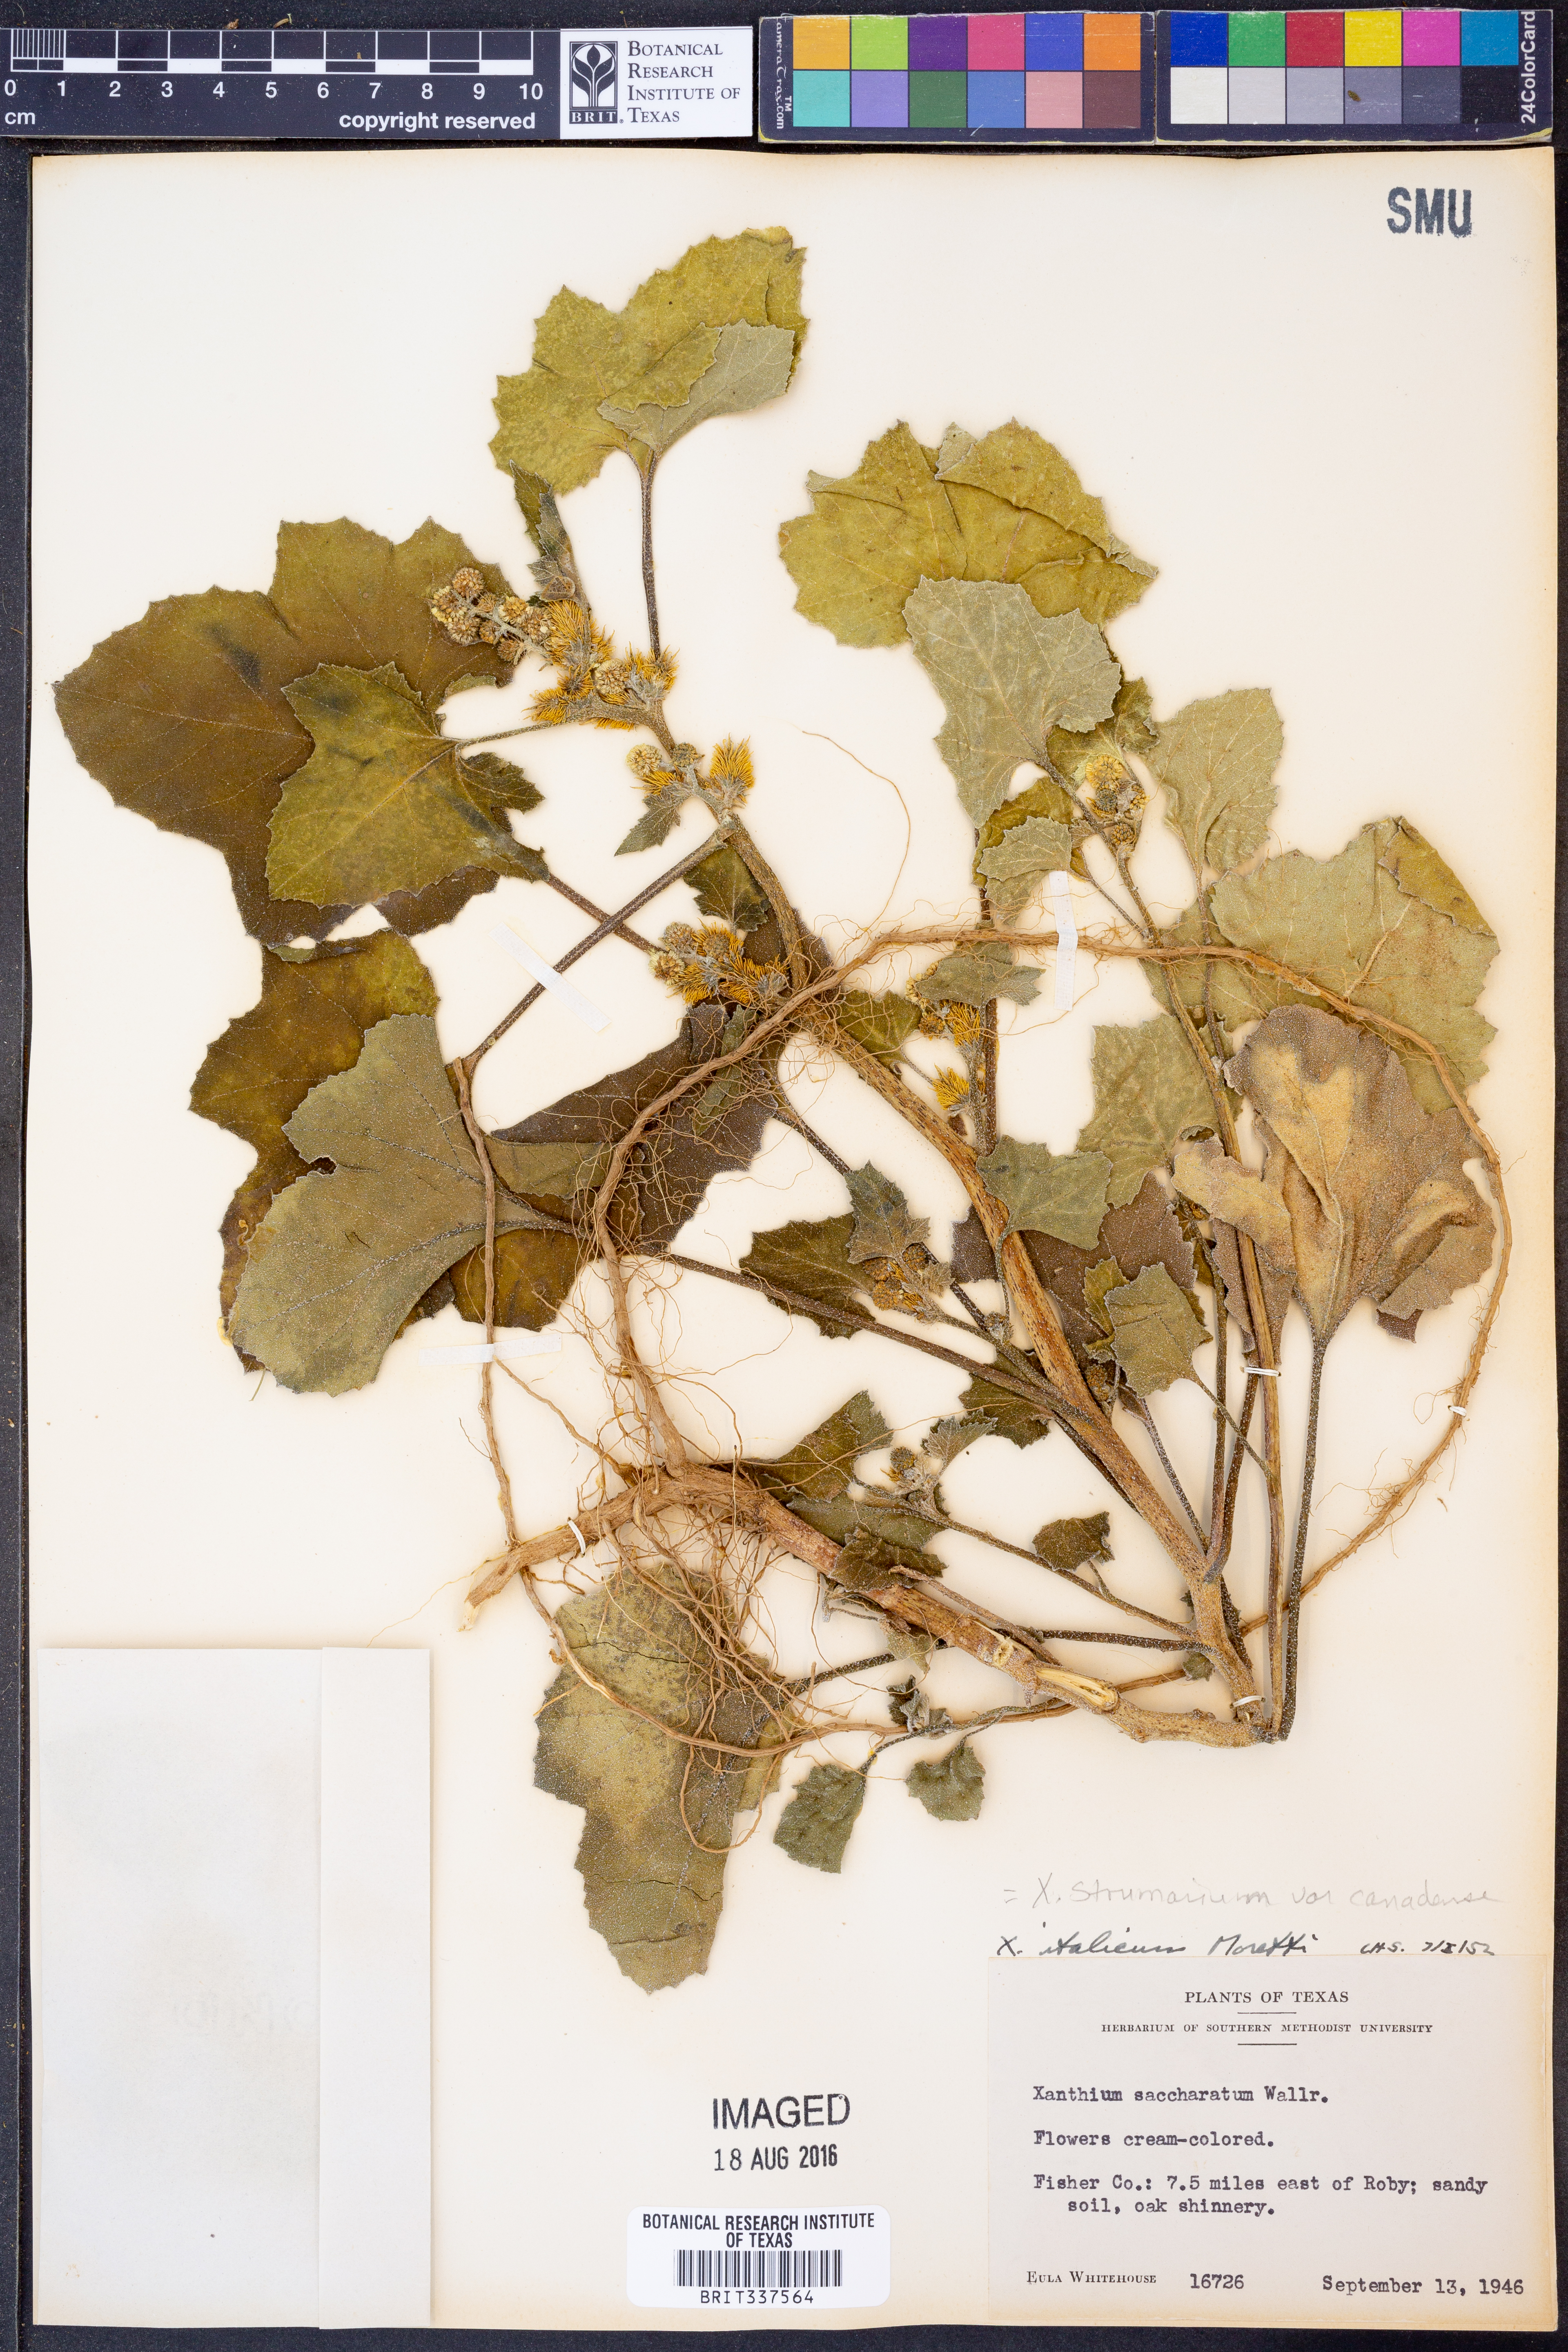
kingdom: Plantae
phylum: Tracheophyta
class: Magnoliopsida
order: Asterales
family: Asteraceae
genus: Xanthium
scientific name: Xanthium orientale
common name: Californian burr
